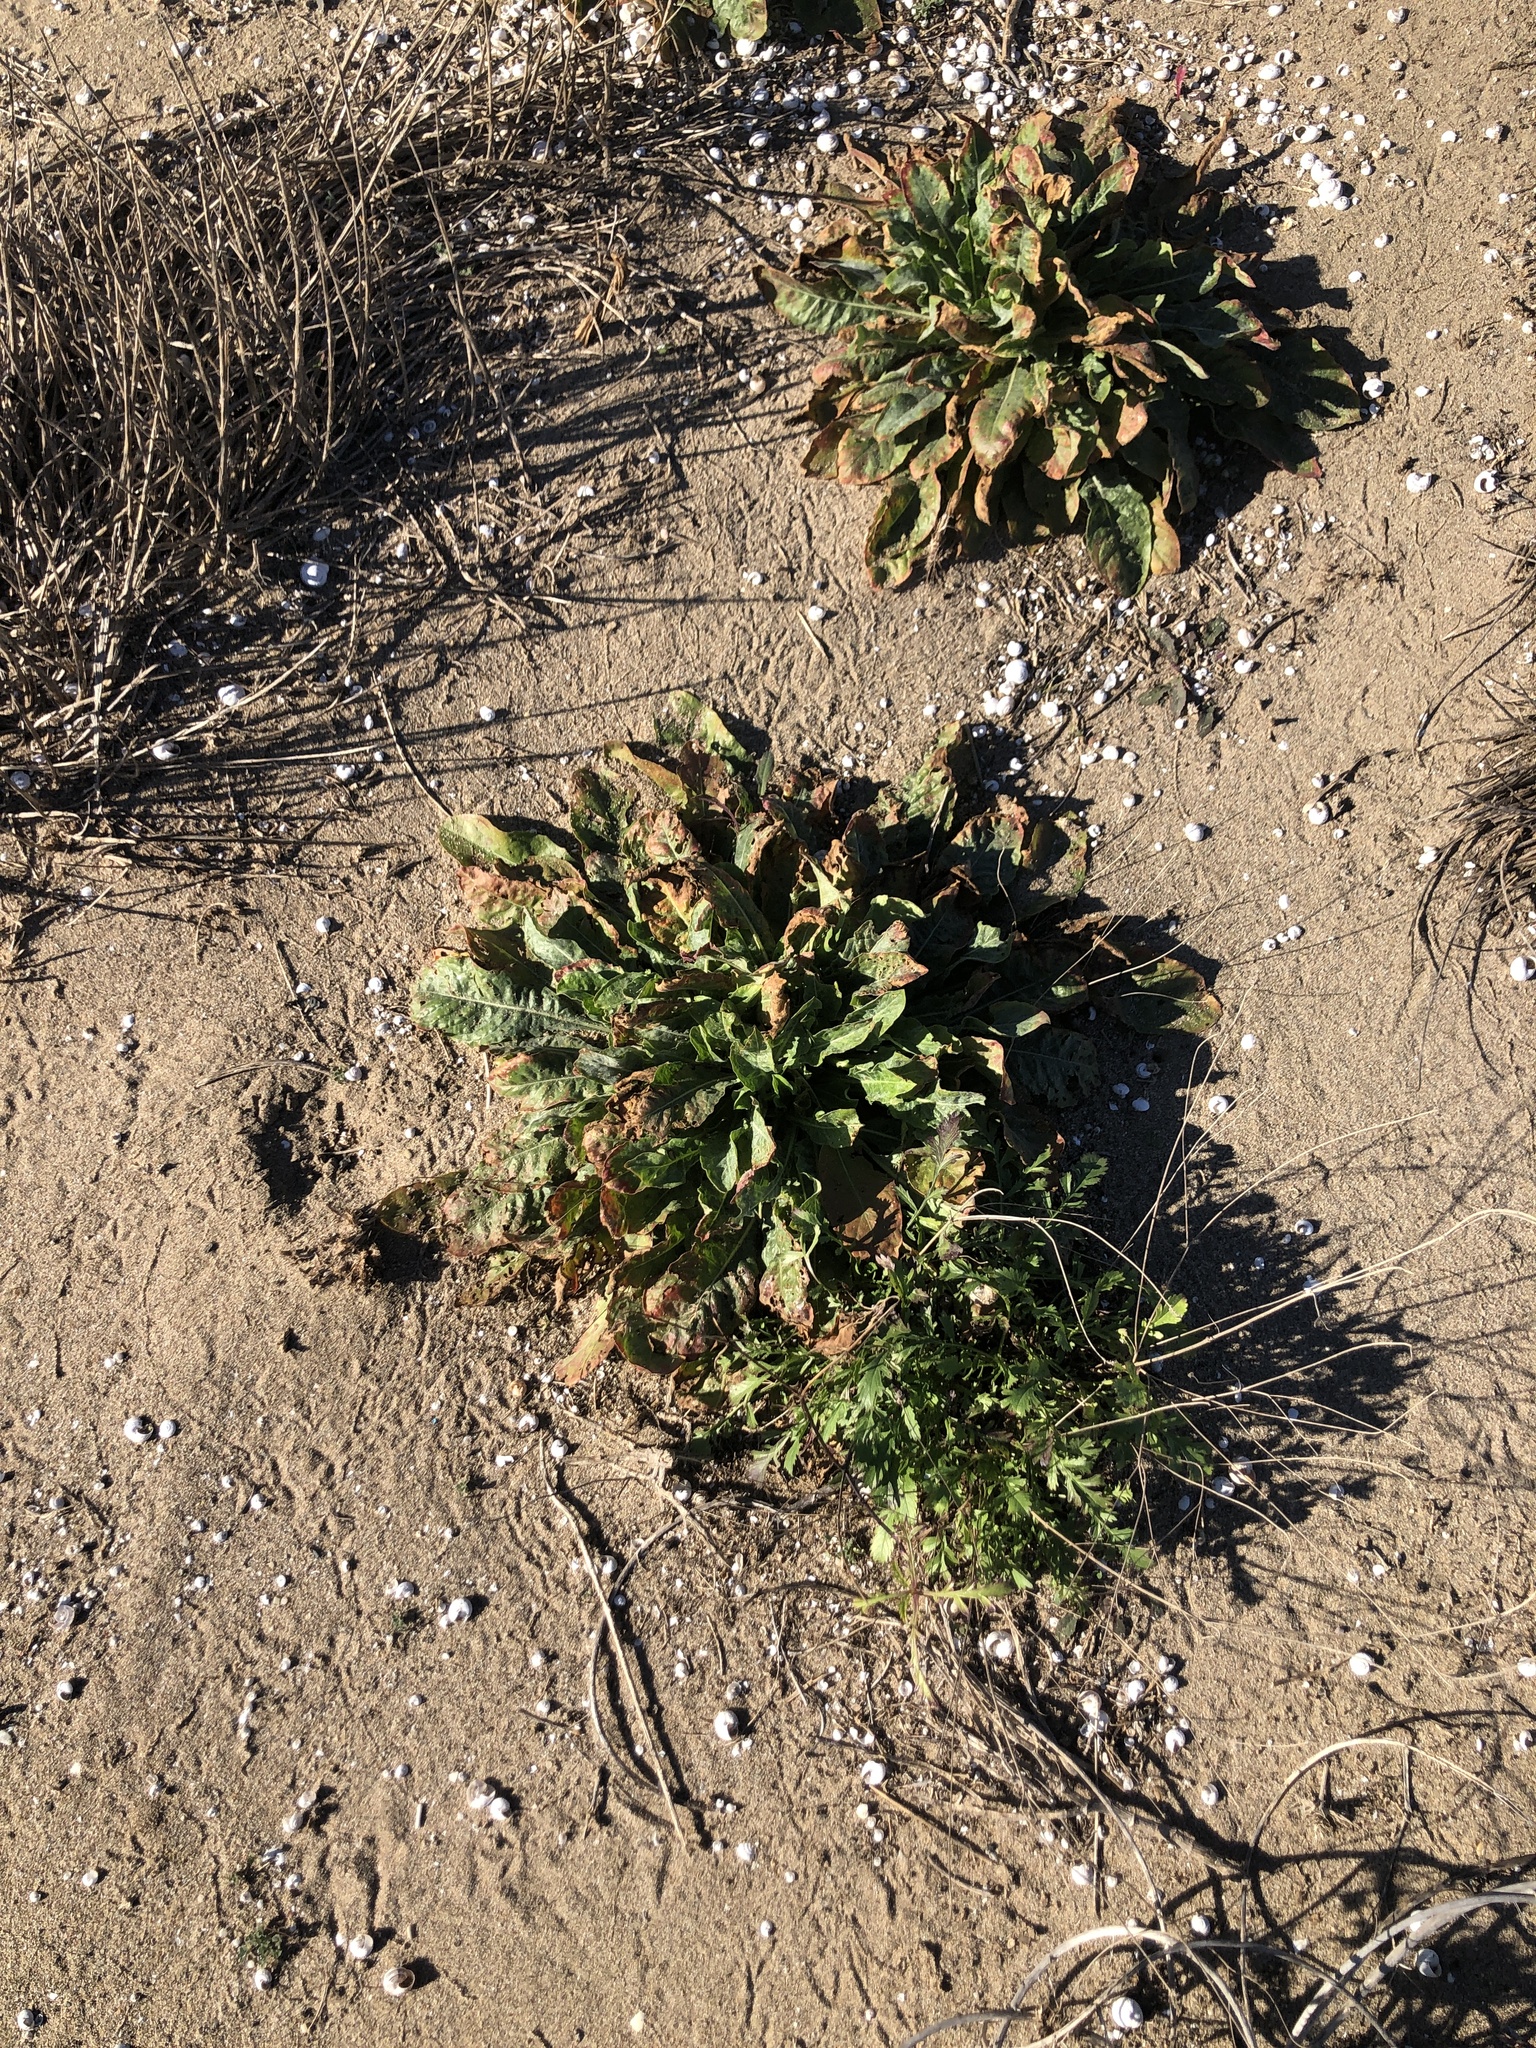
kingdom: Plantae
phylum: Tracheophyta
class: Magnoliopsida
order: Myrtales
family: Onagraceae
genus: Oenothera
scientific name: Oenothera glazioviana
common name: Large-flowered evening-primrose
